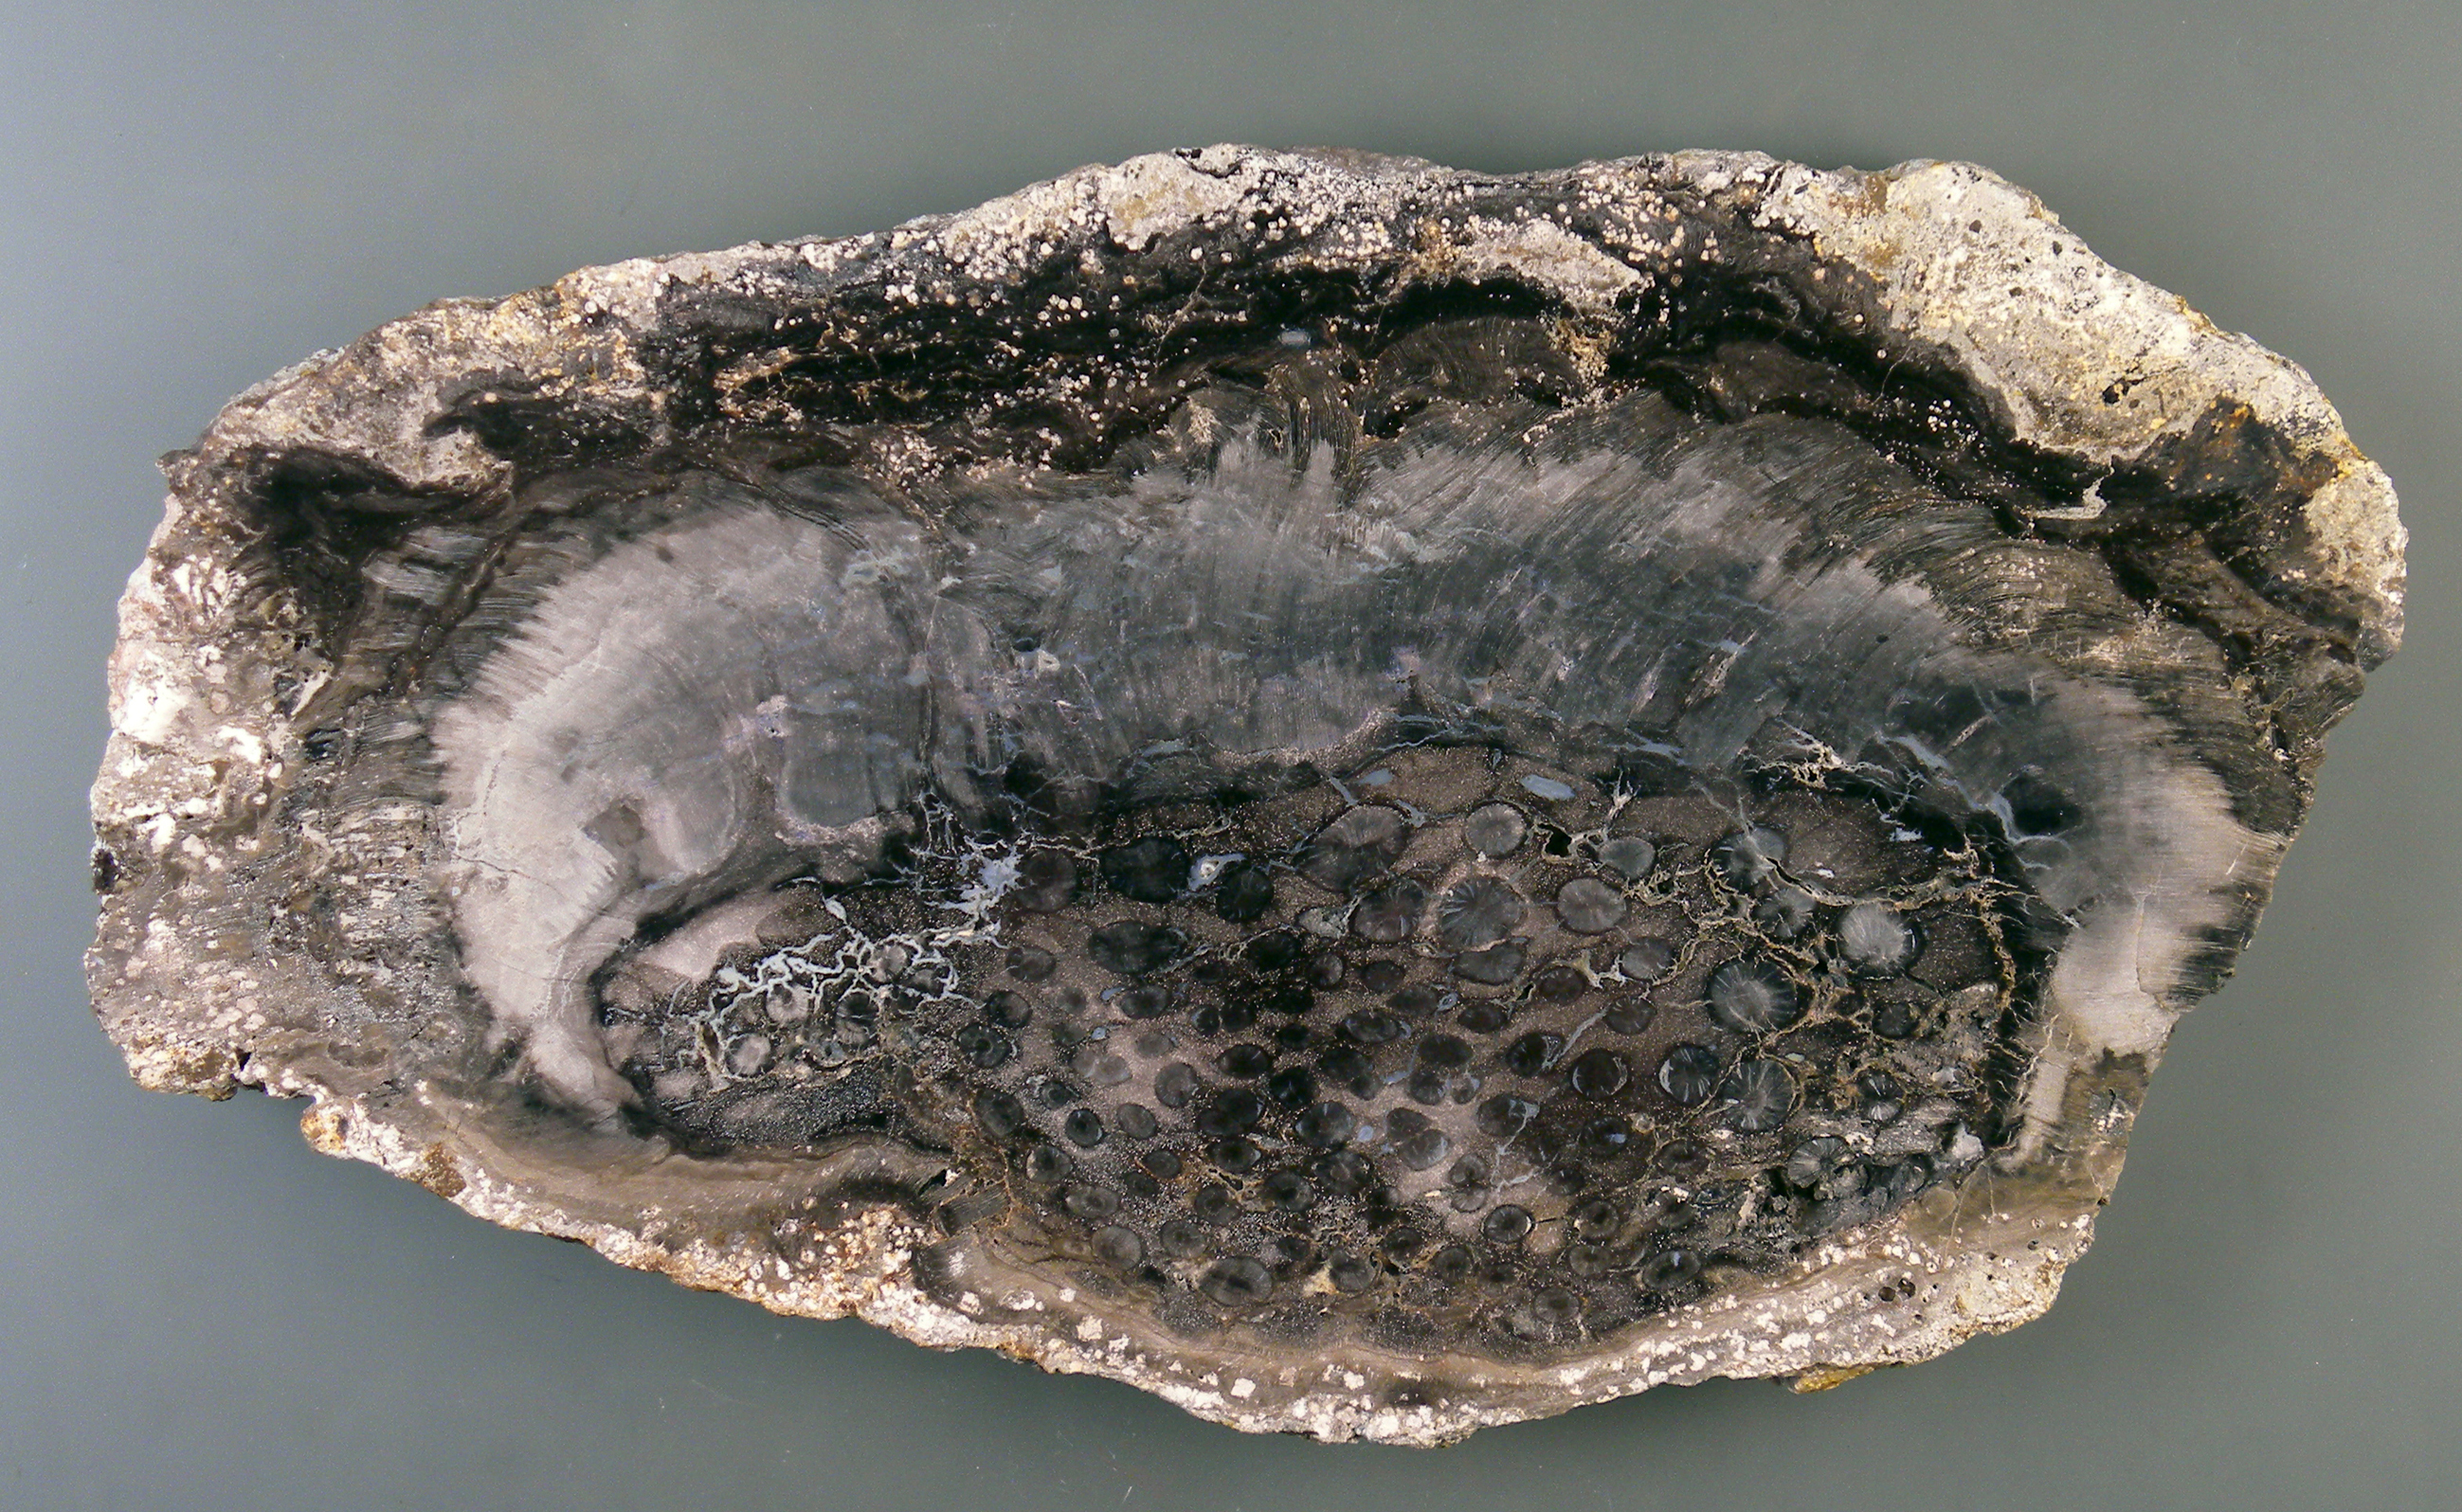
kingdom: Plantae
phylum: Tracheophyta
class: Cycadopsida
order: Cycadales
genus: Neuropteromedullosa
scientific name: Neuropteromedullosa Medullosa stellata
